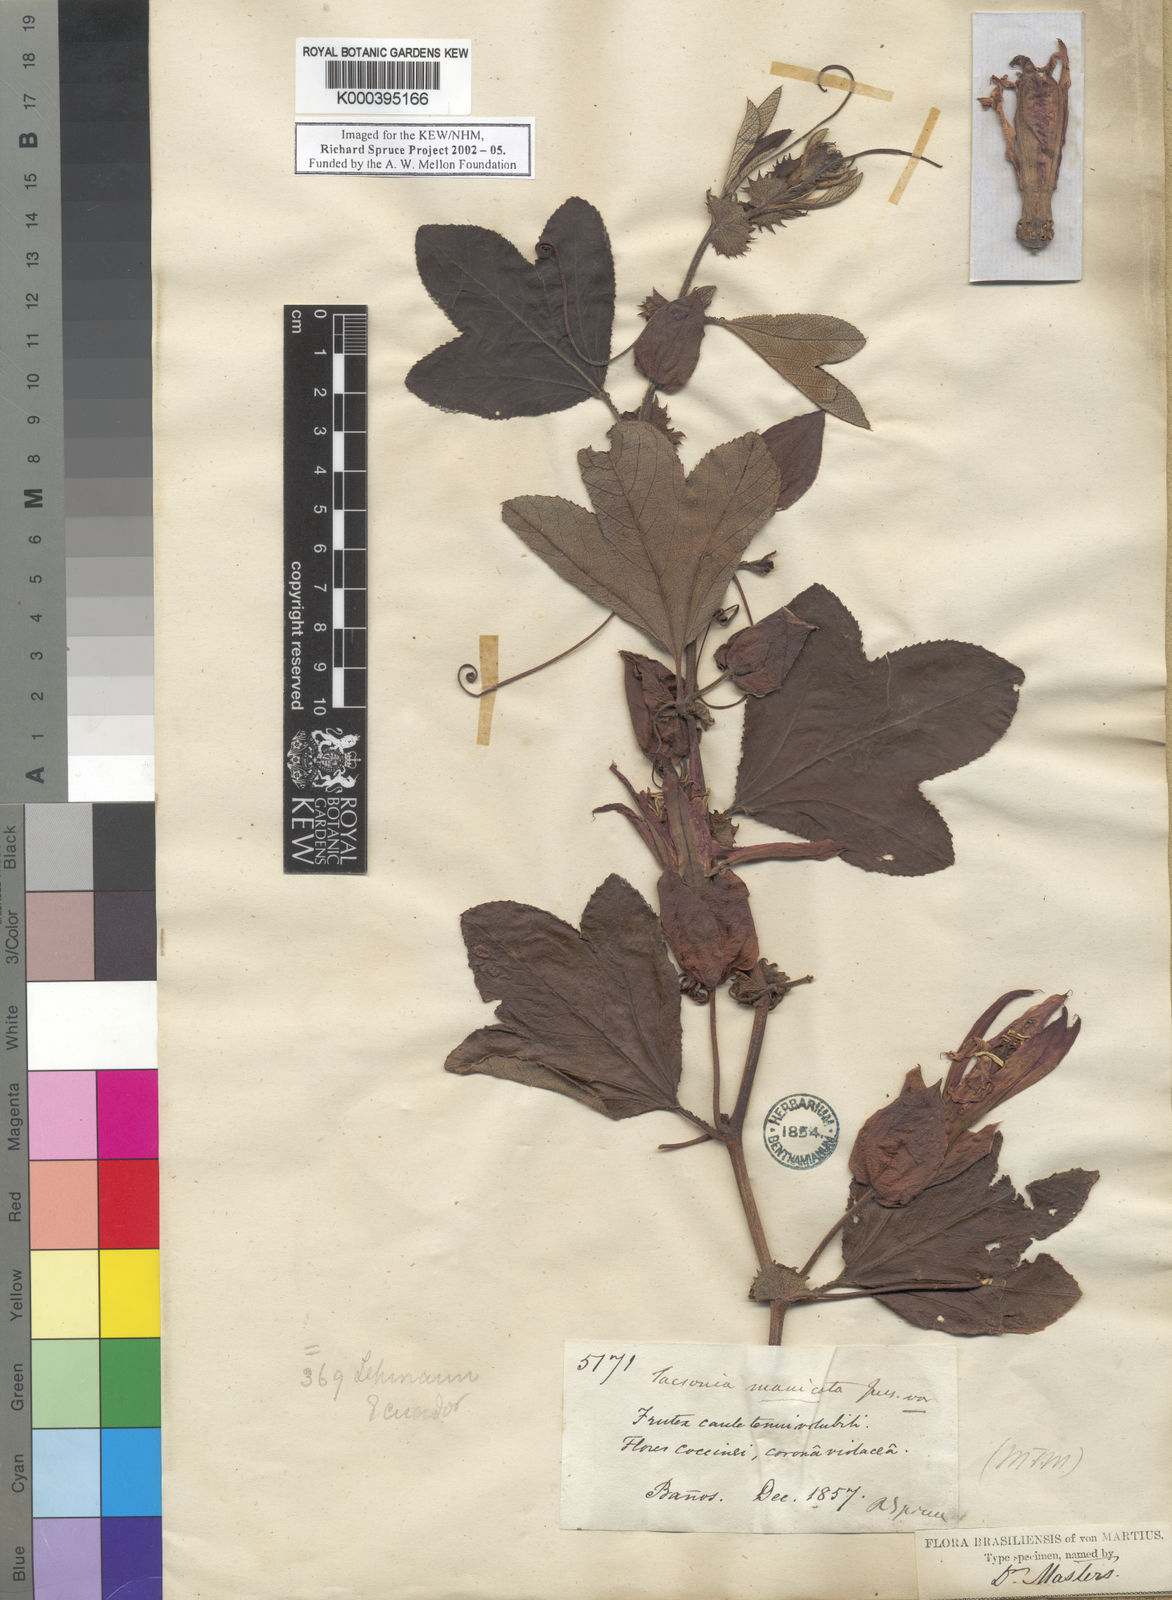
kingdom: Plantae
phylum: Tracheophyta
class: Magnoliopsida
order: Malpighiales
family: Passifloraceae
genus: Passiflora
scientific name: Passiflora manicata
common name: Red passionflower
